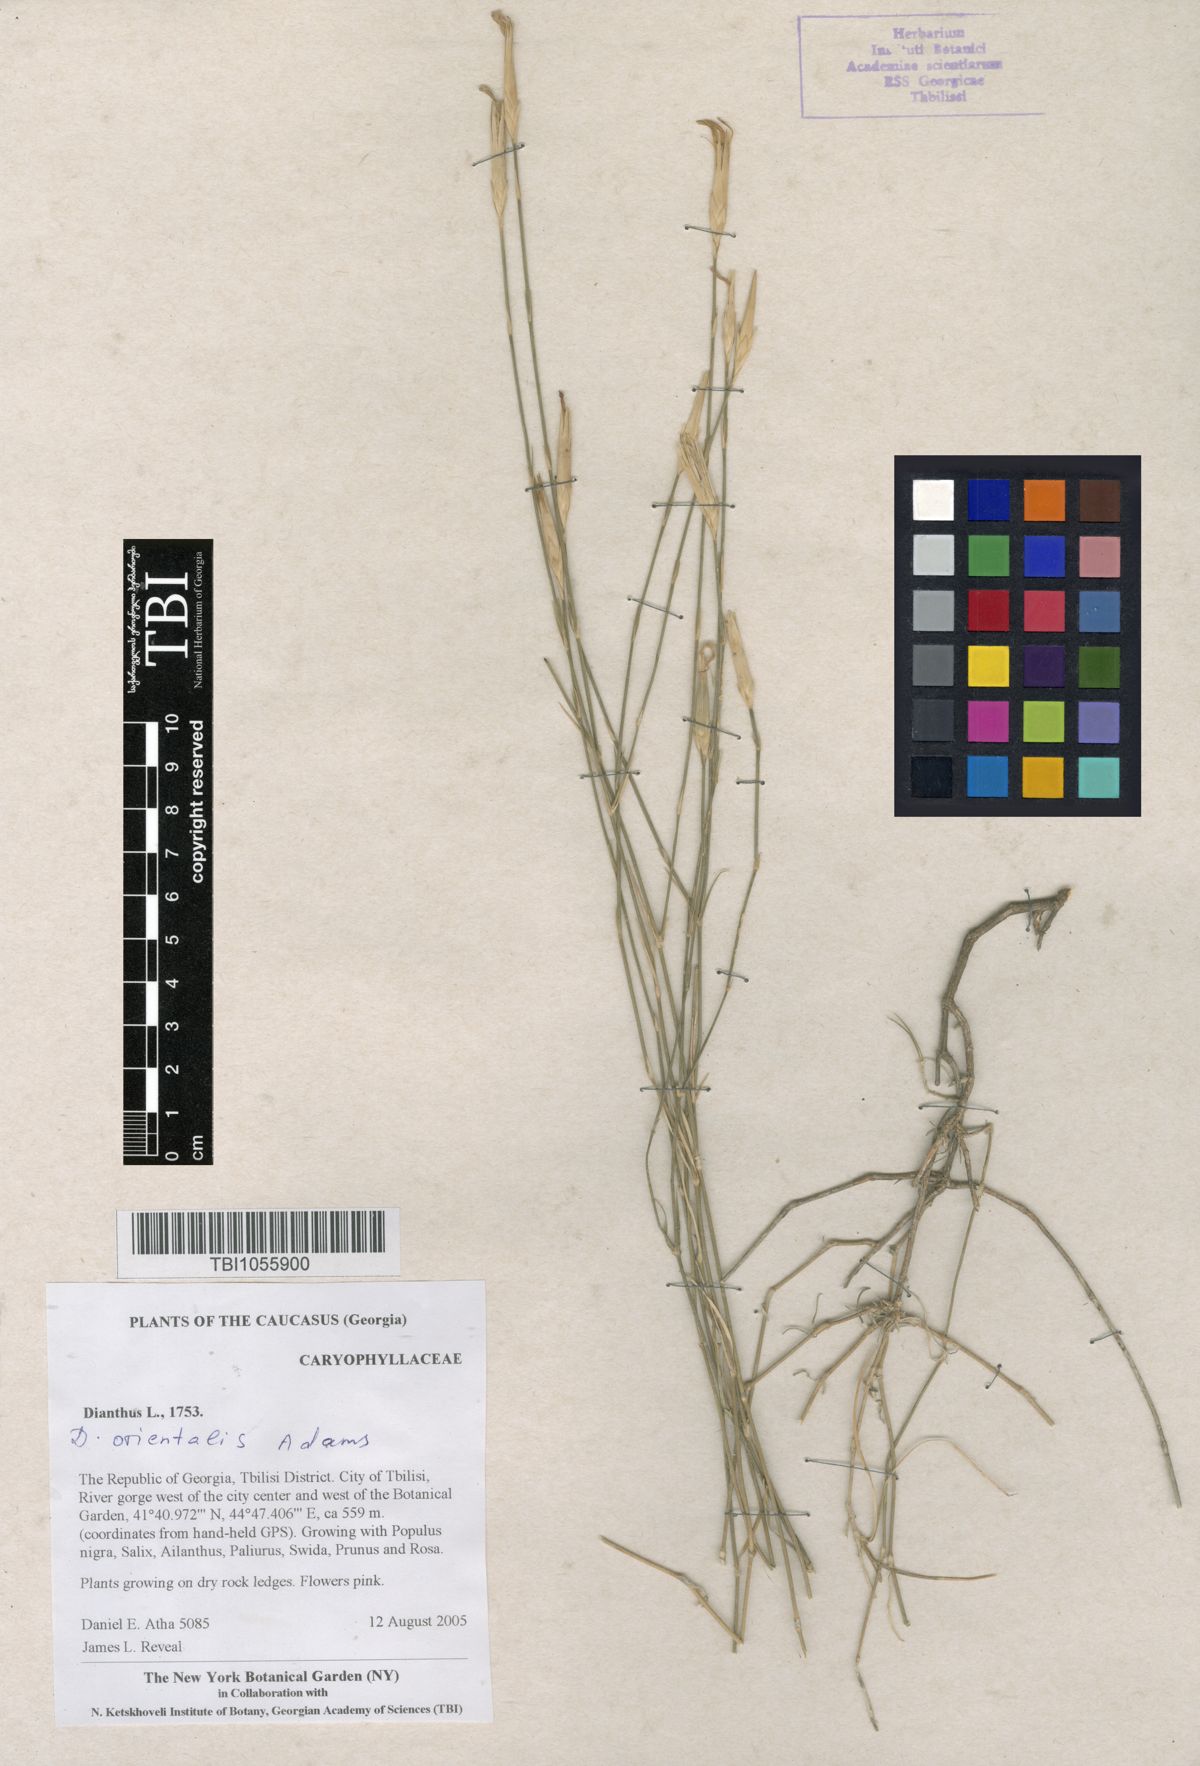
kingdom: Plantae
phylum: Tracheophyta
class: Magnoliopsida
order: Caryophyllales
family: Caryophyllaceae
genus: Dianthus
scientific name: Dianthus orientalis
